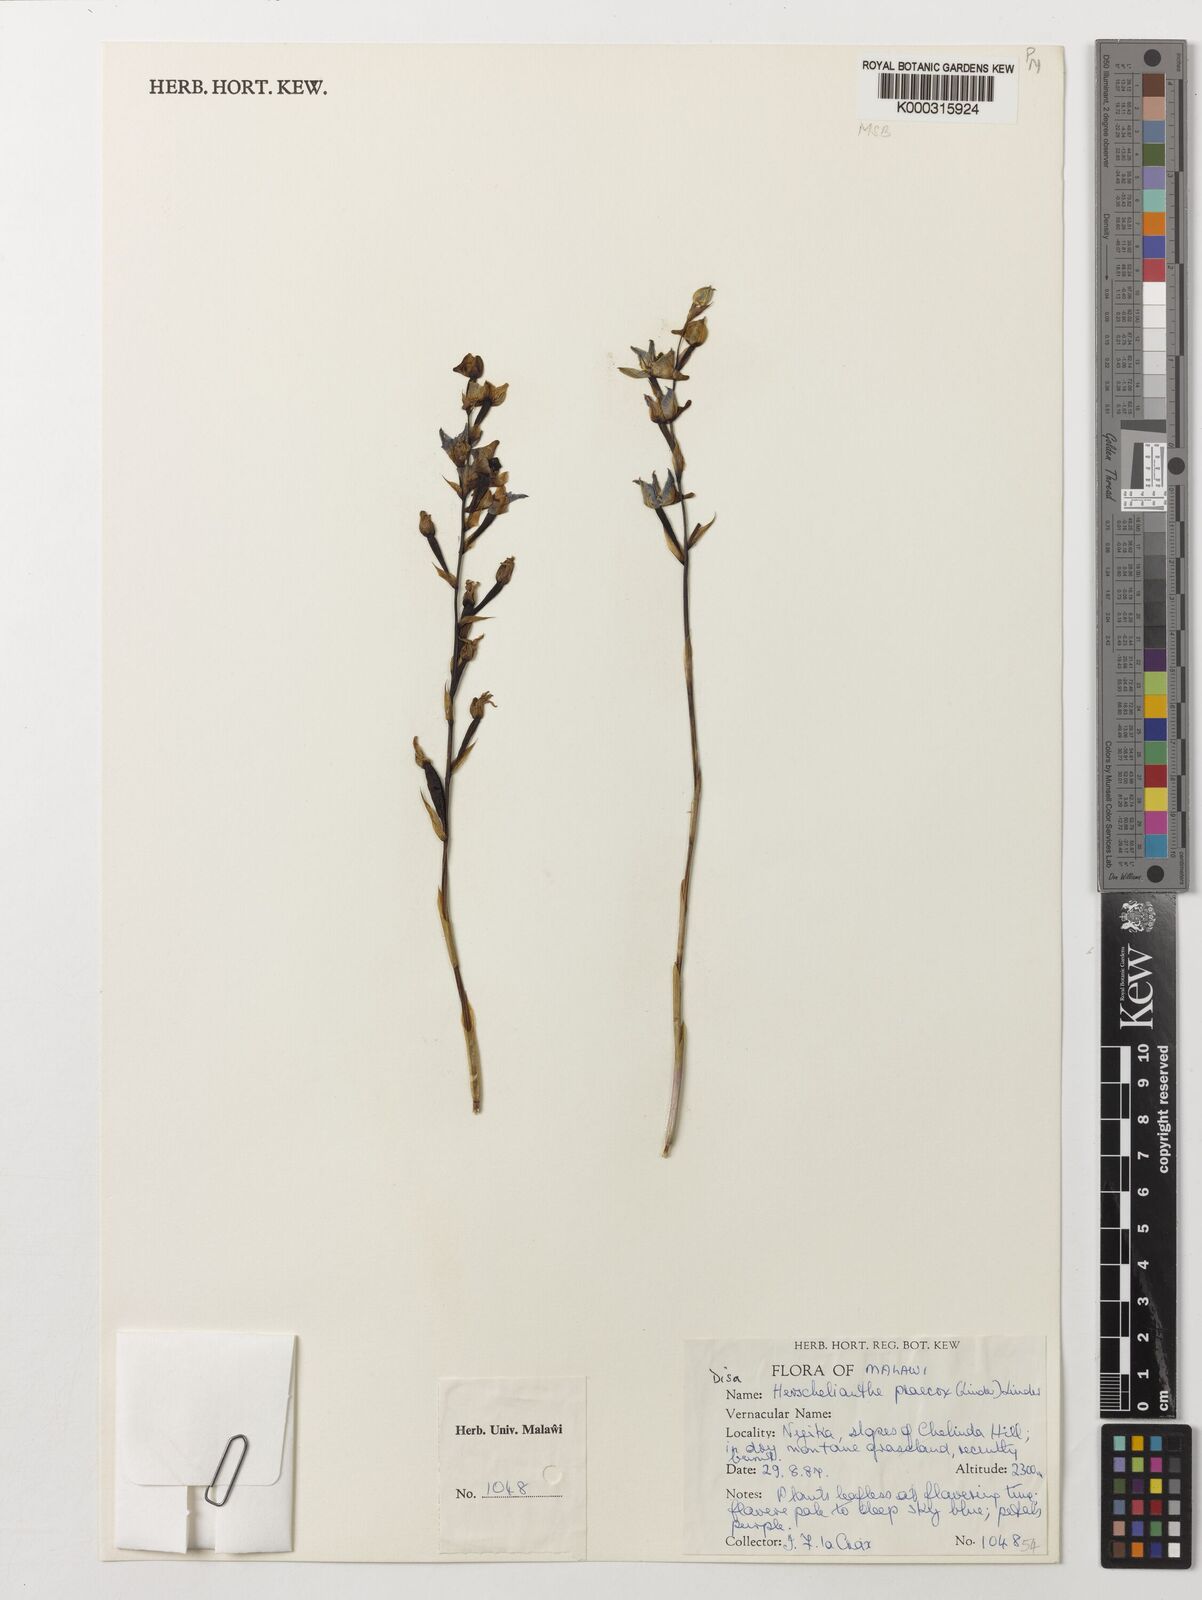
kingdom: Plantae
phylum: Tracheophyta
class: Liliopsida
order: Asparagales
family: Orchidaceae
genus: Disa
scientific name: Disa praecox
